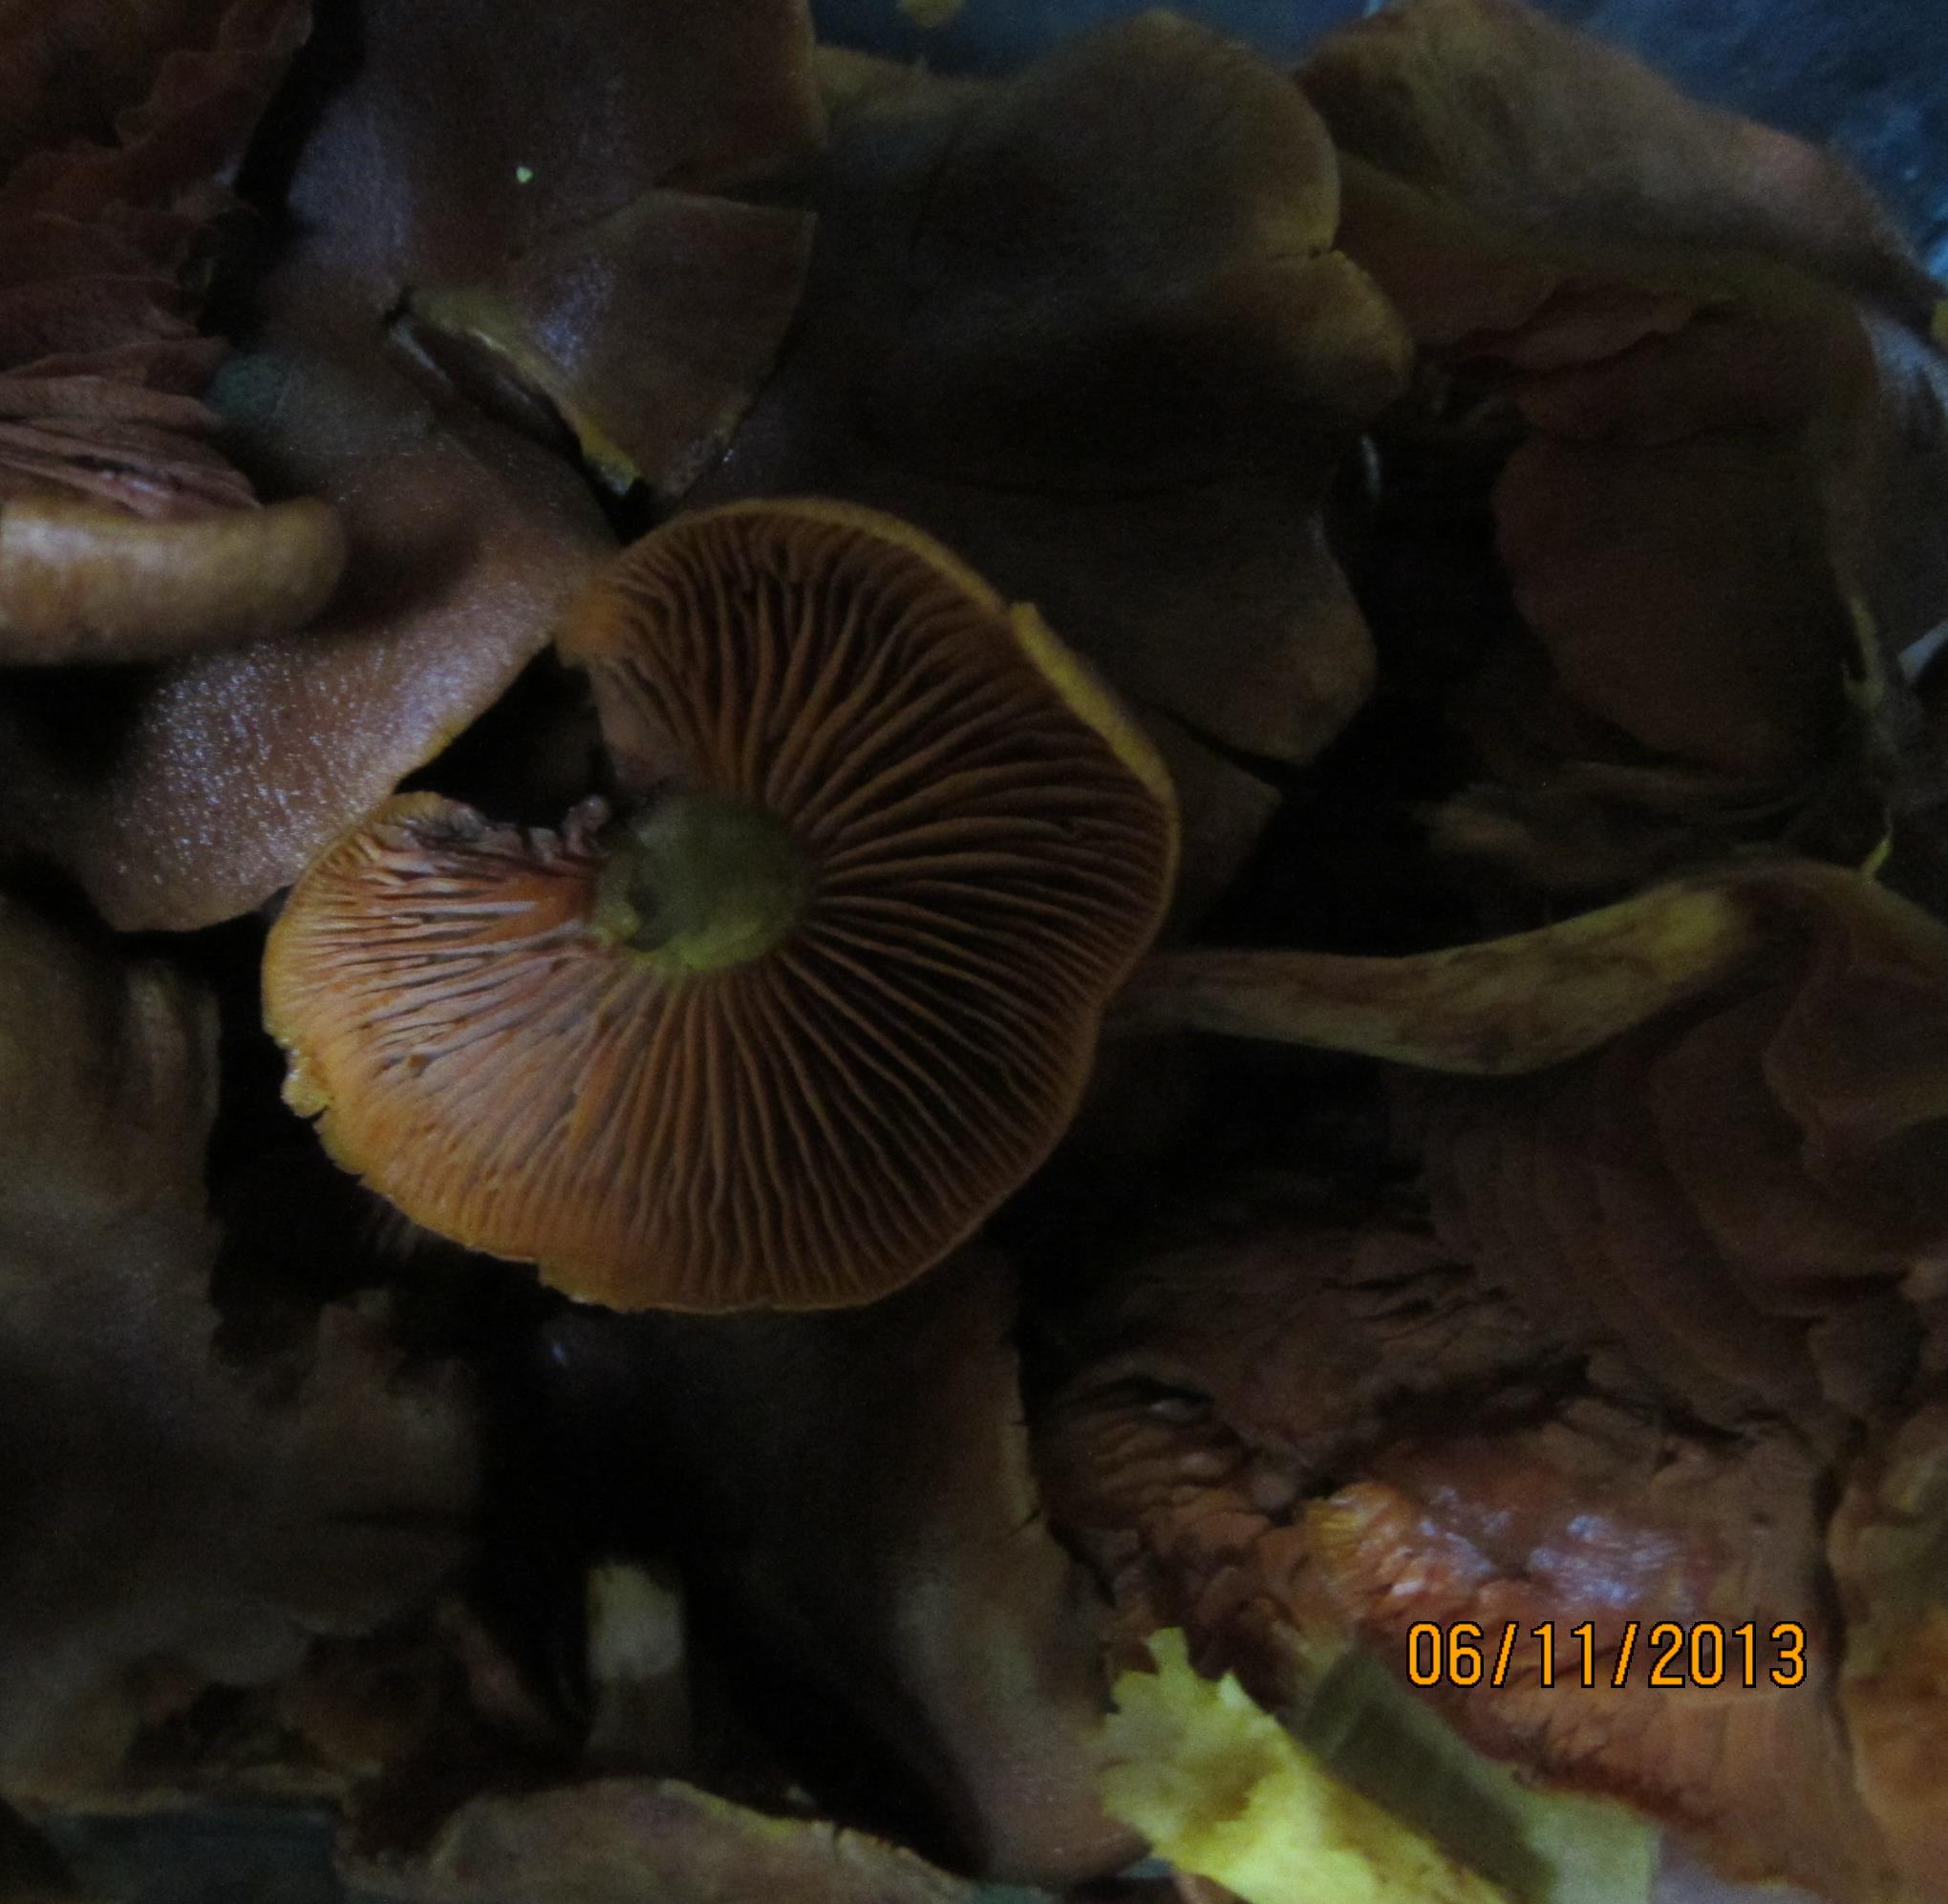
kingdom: Fungi
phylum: Basidiomycota
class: Agaricomycetes
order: Agaricales
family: Cortinariaceae
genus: Cortinarius
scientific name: Cortinarius malicorius
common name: grønkødet slørhat
